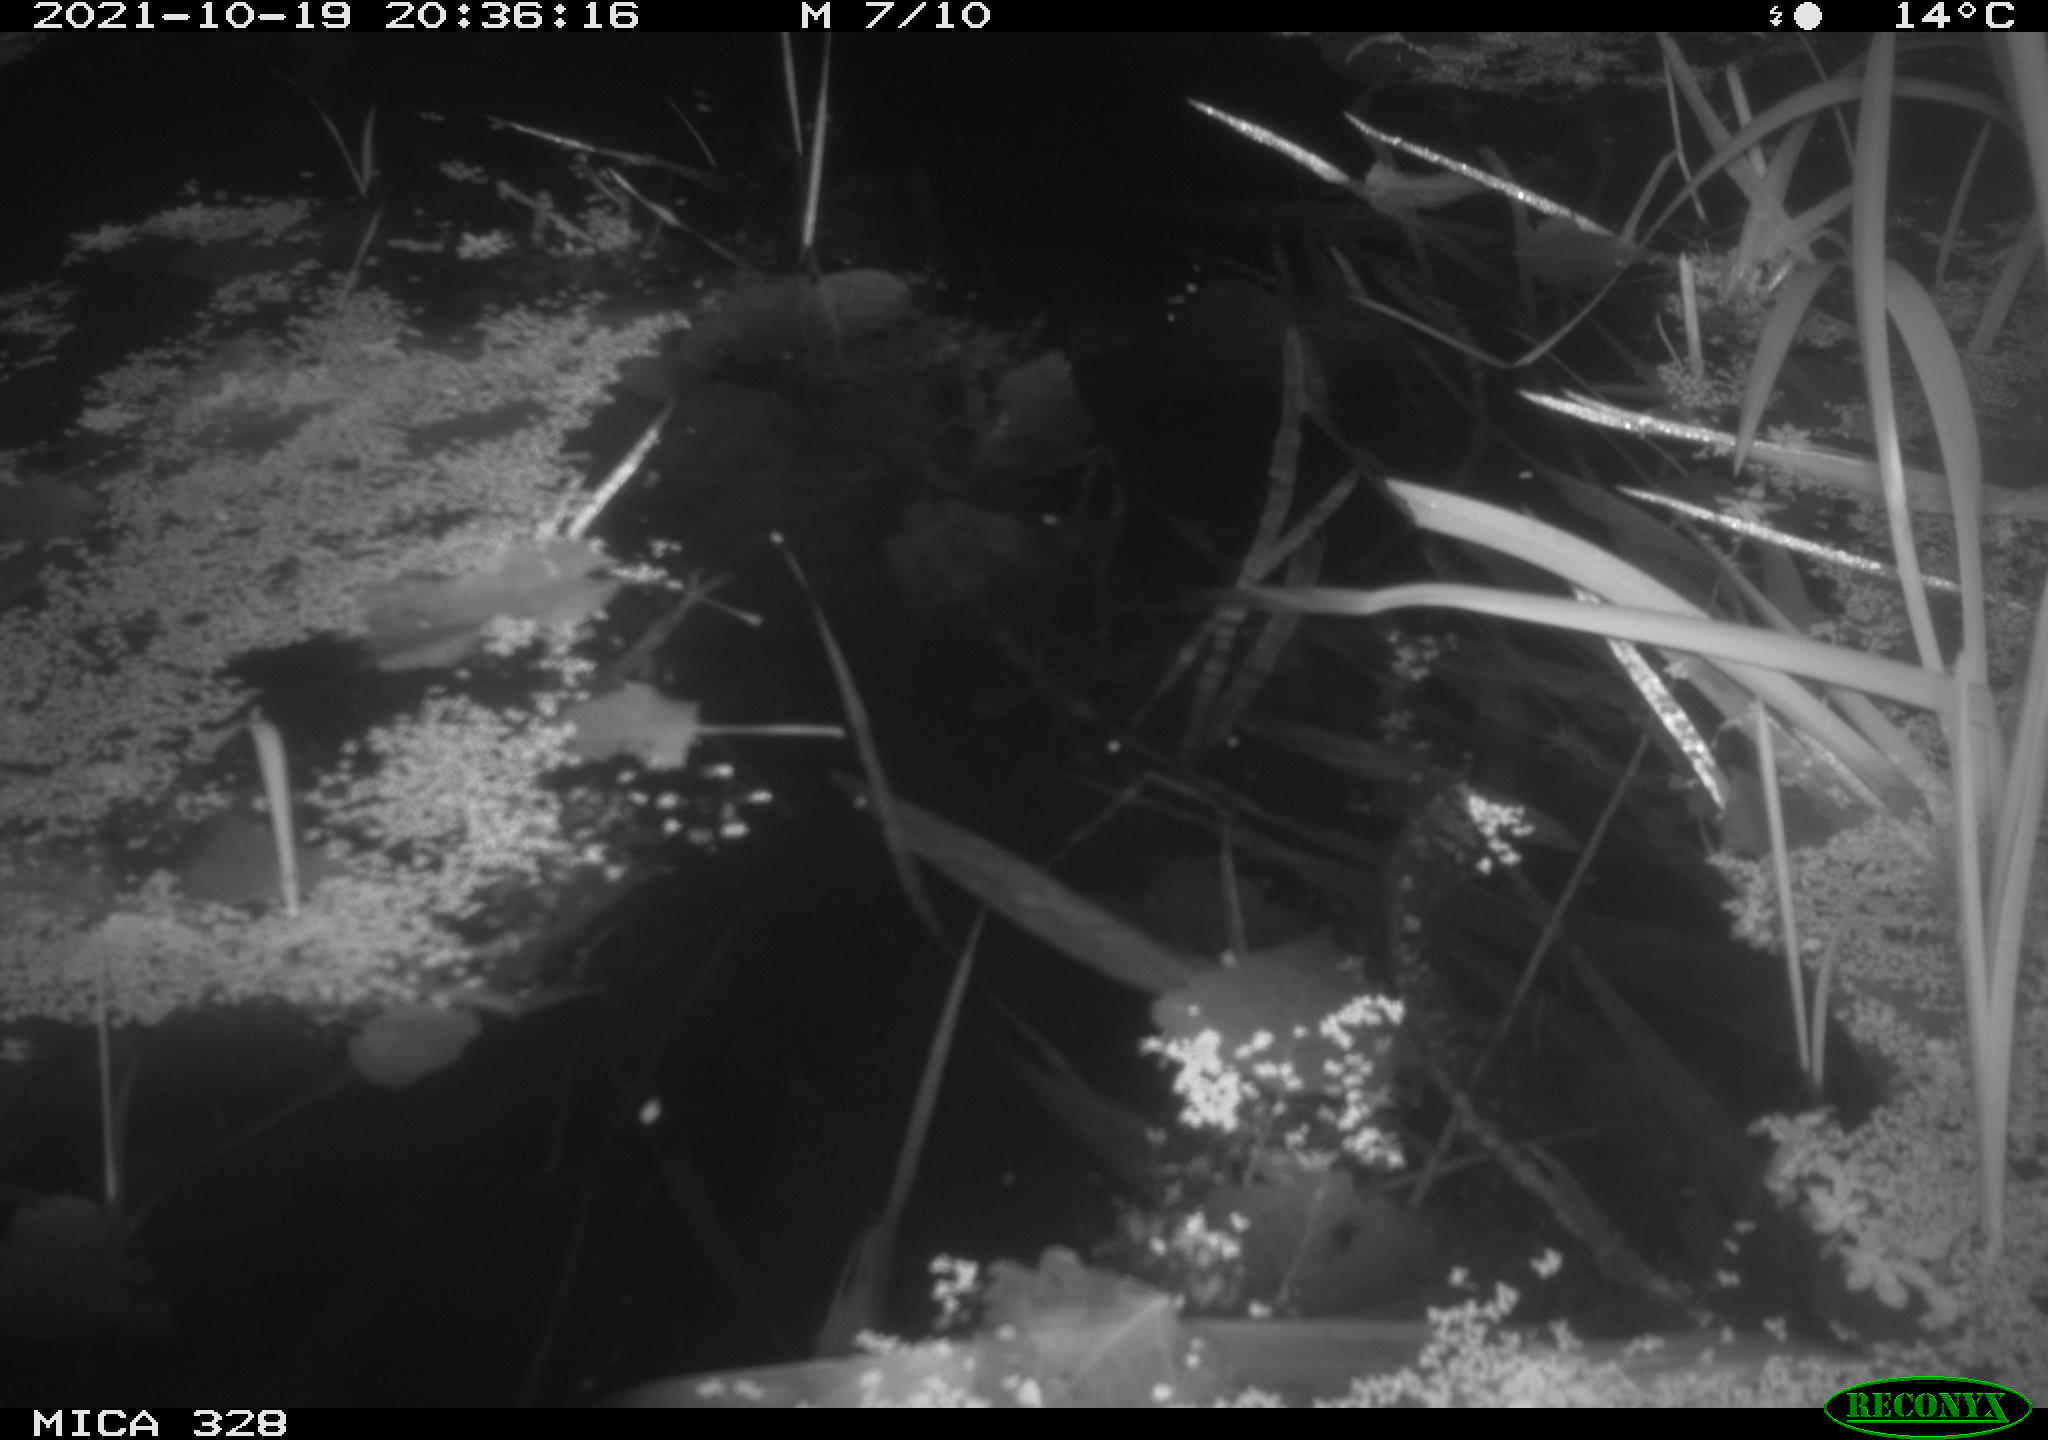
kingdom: Animalia
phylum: Chordata
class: Mammalia
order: Rodentia
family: Cricetidae
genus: Ondatra
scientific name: Ondatra zibethicus
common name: Muskrat
